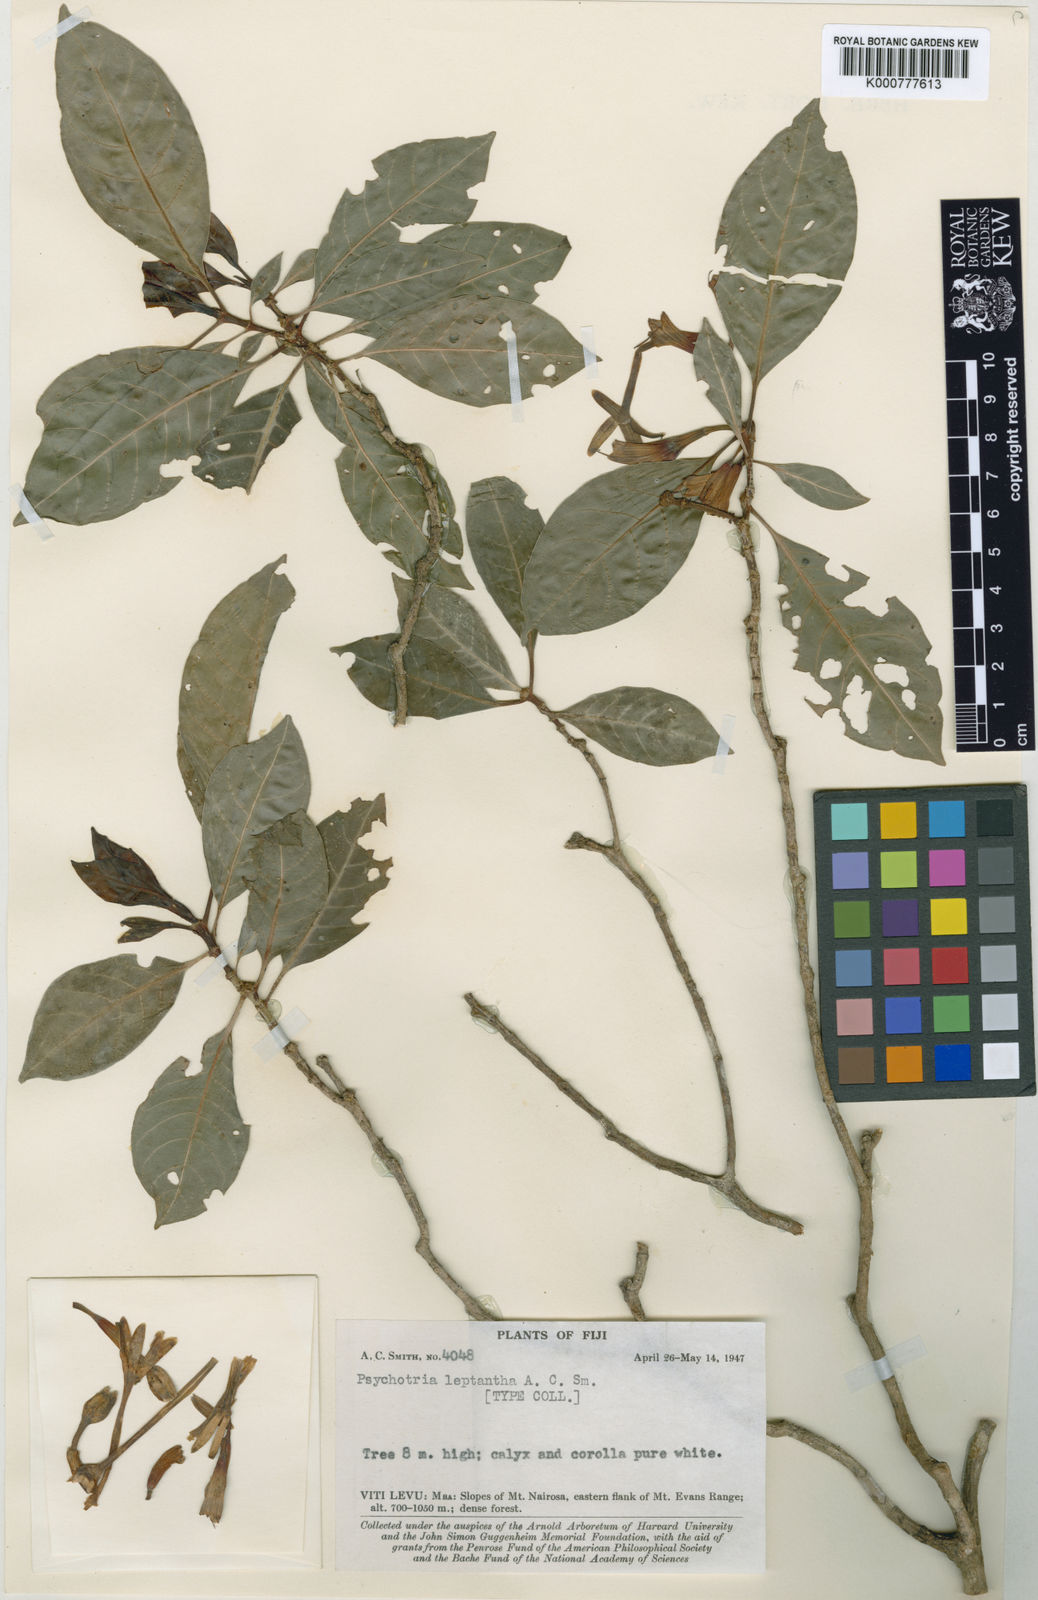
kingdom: Plantae
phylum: Tracheophyta
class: Magnoliopsida
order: Gentianales
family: Rubiaceae
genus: Psychotria
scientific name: Psychotria leptantha
